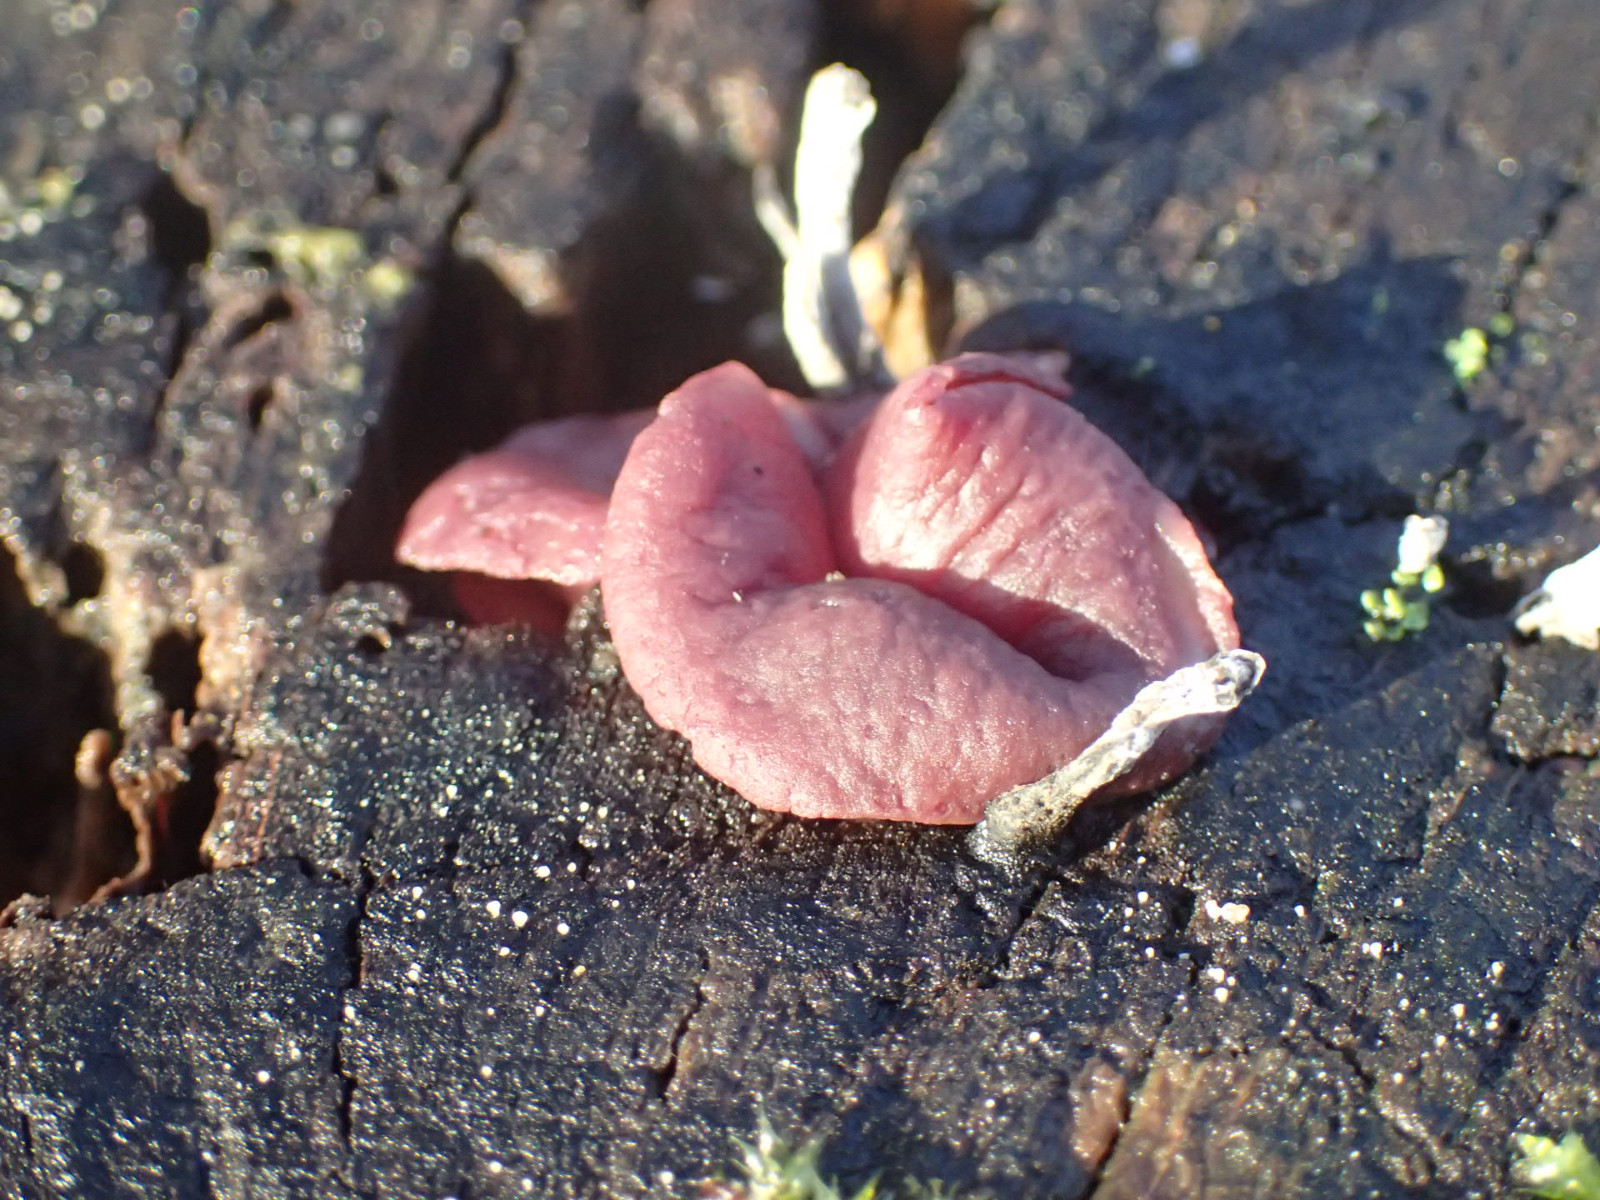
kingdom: Fungi
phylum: Ascomycota
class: Leotiomycetes
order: Helotiales
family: Gelatinodiscaceae
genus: Ascocoryne
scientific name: Ascocoryne
